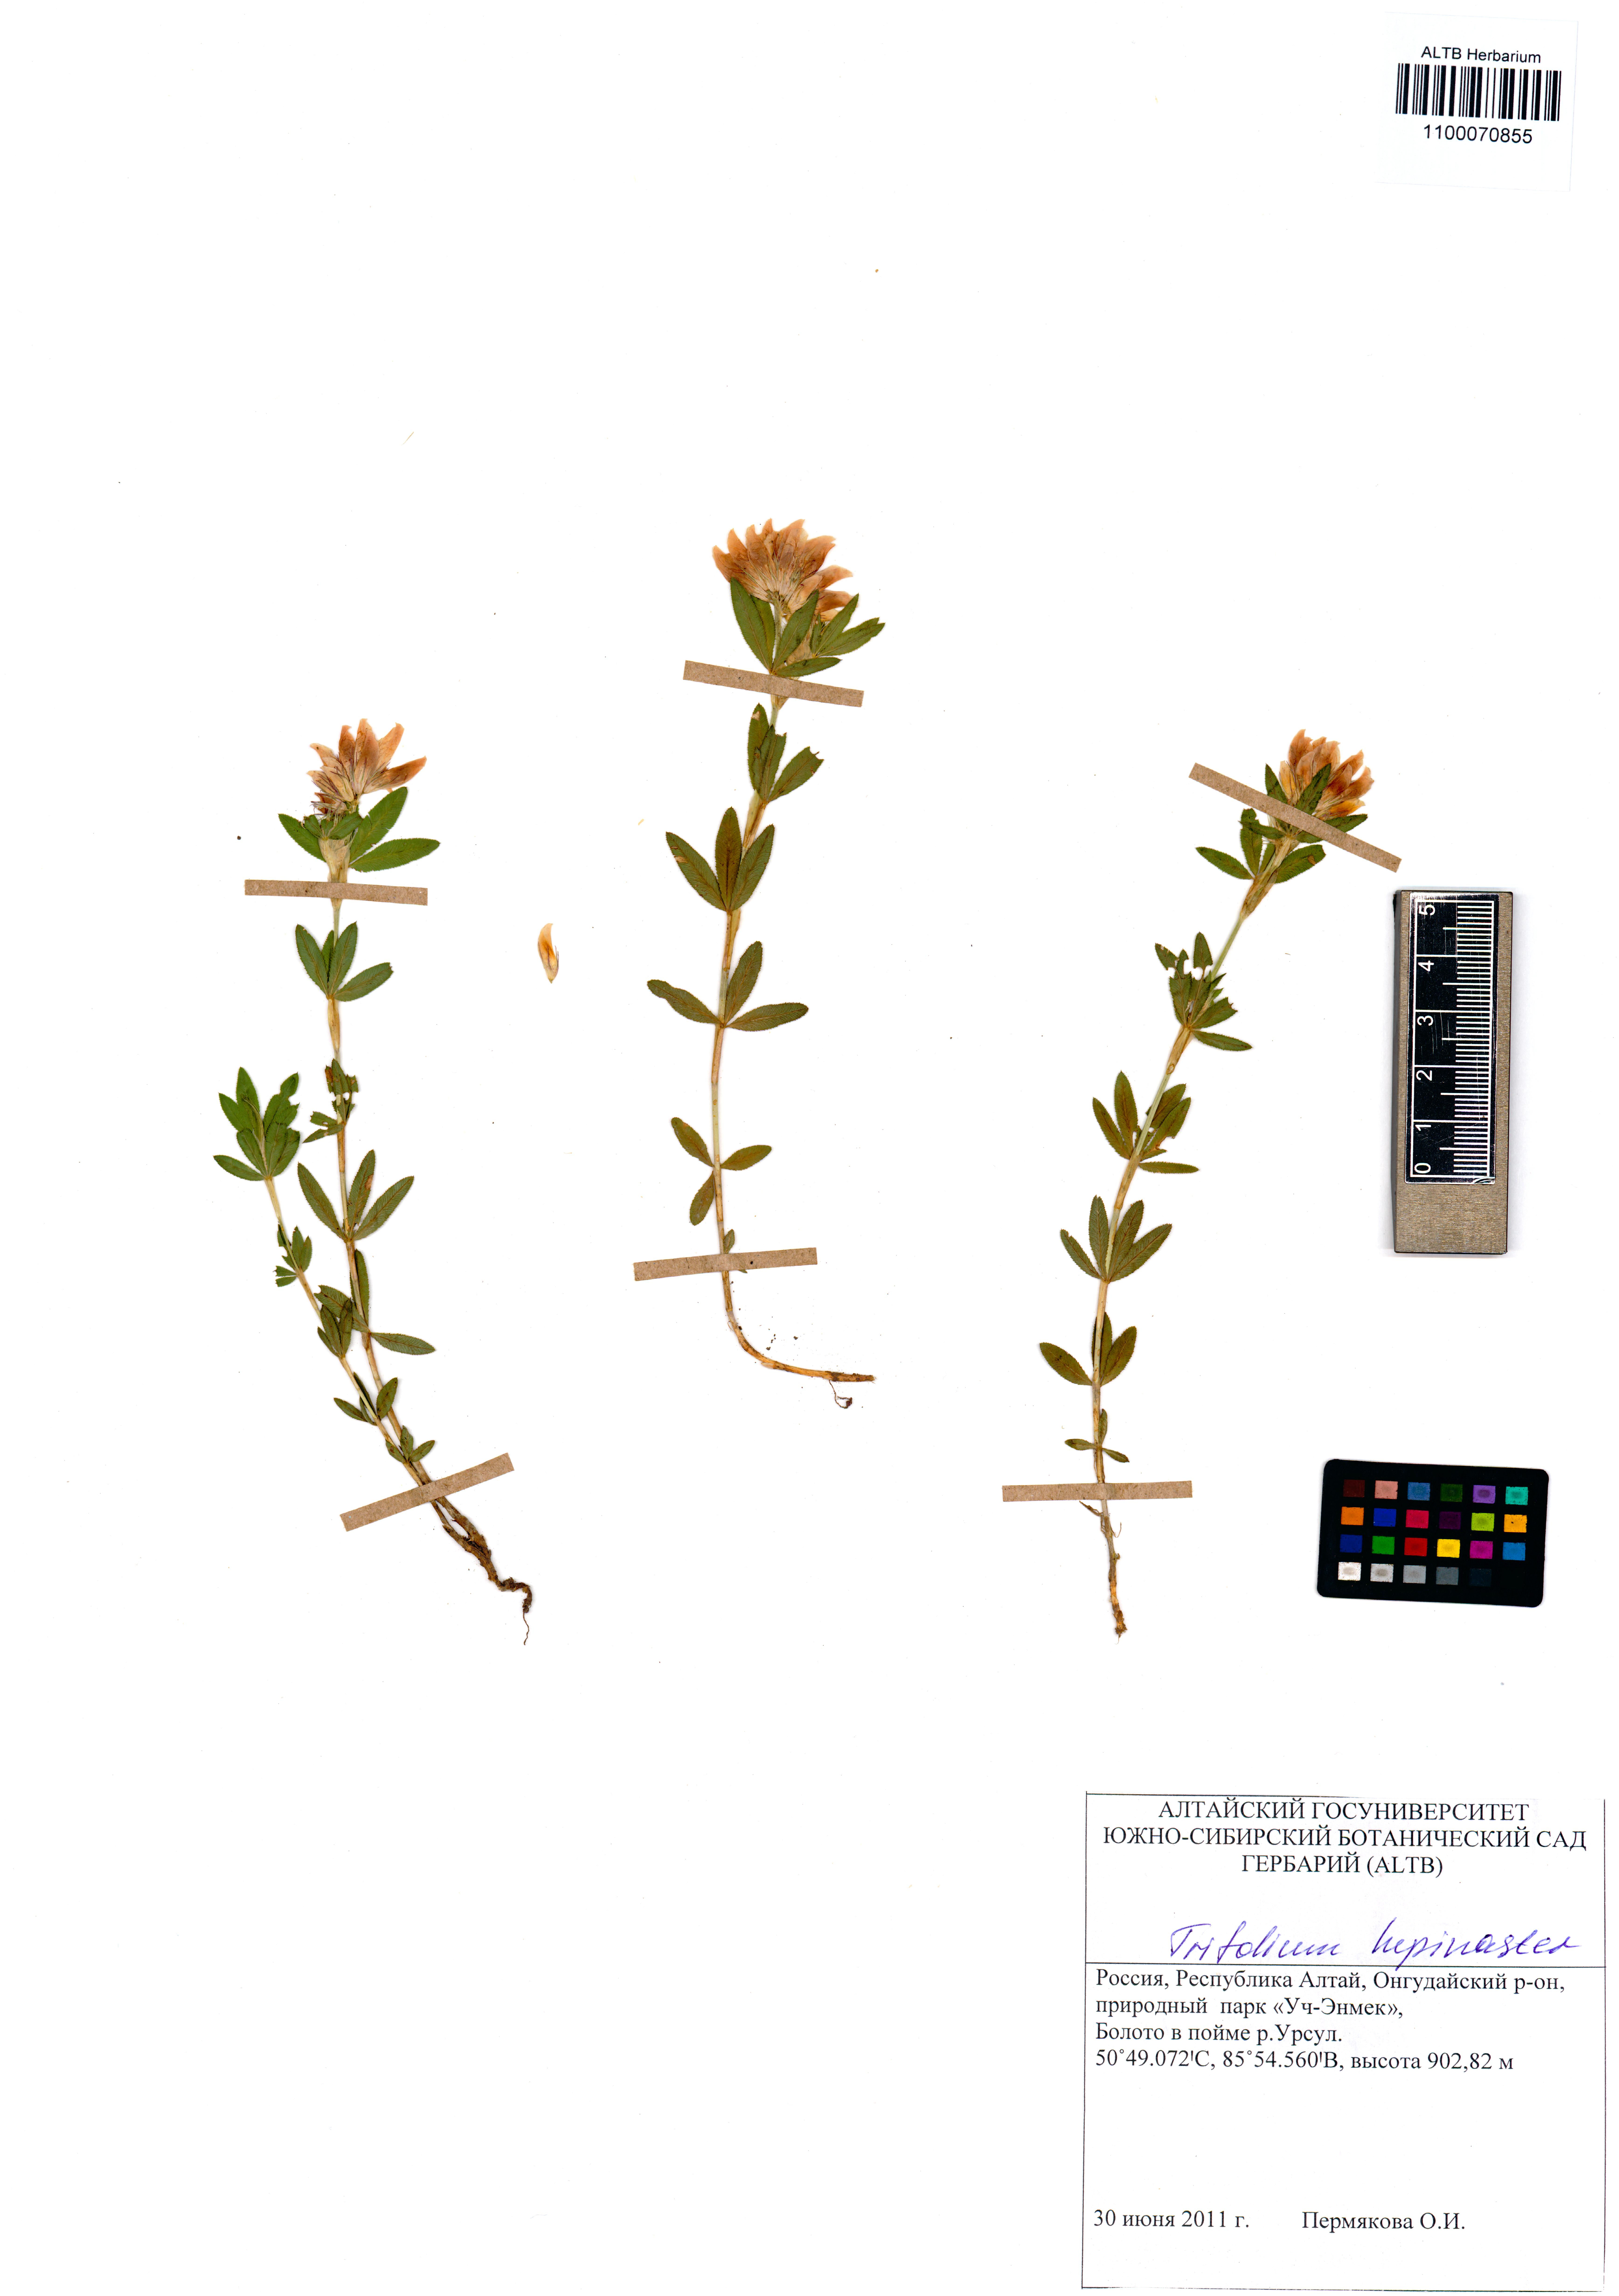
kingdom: Plantae
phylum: Tracheophyta
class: Magnoliopsida
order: Fabales
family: Fabaceae
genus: Trifolium
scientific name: Trifolium lupinaster
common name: Lupine clover
